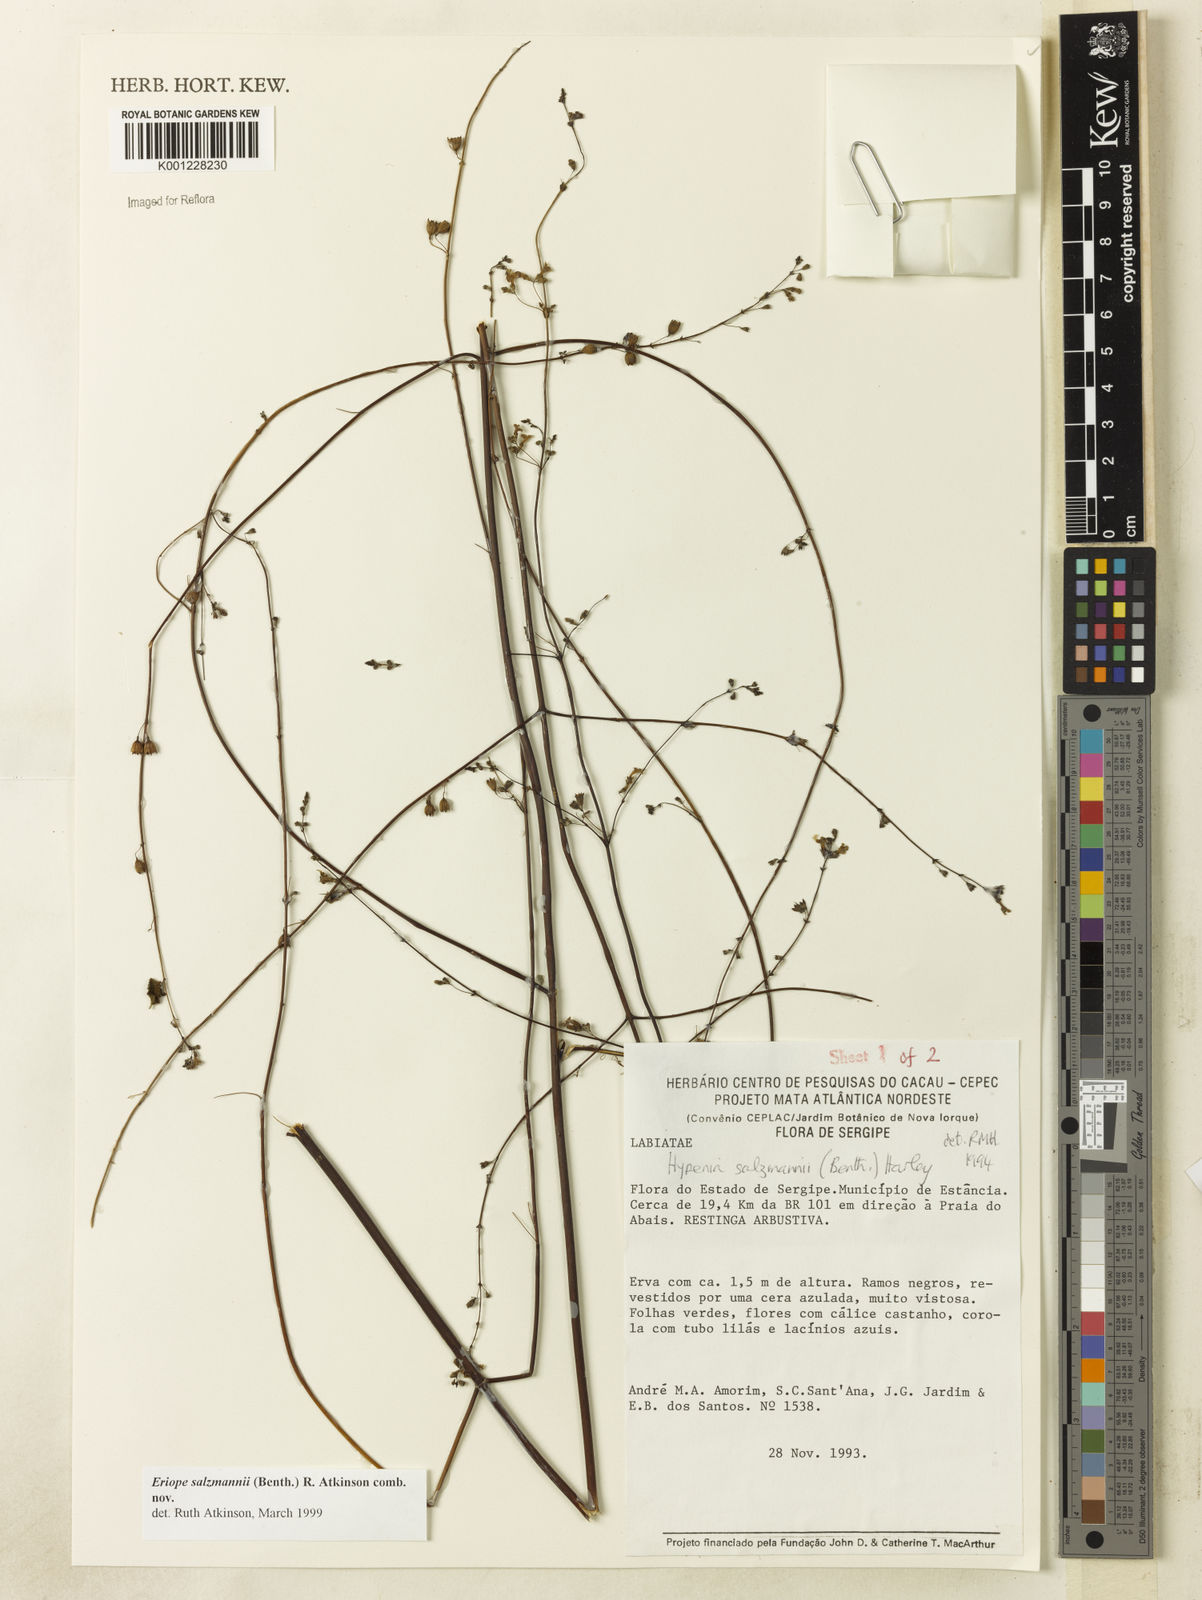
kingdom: Plantae
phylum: Tracheophyta
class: Magnoliopsida
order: Lamiales
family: Lamiaceae
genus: Hypenia
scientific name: Hypenia salzmannii
